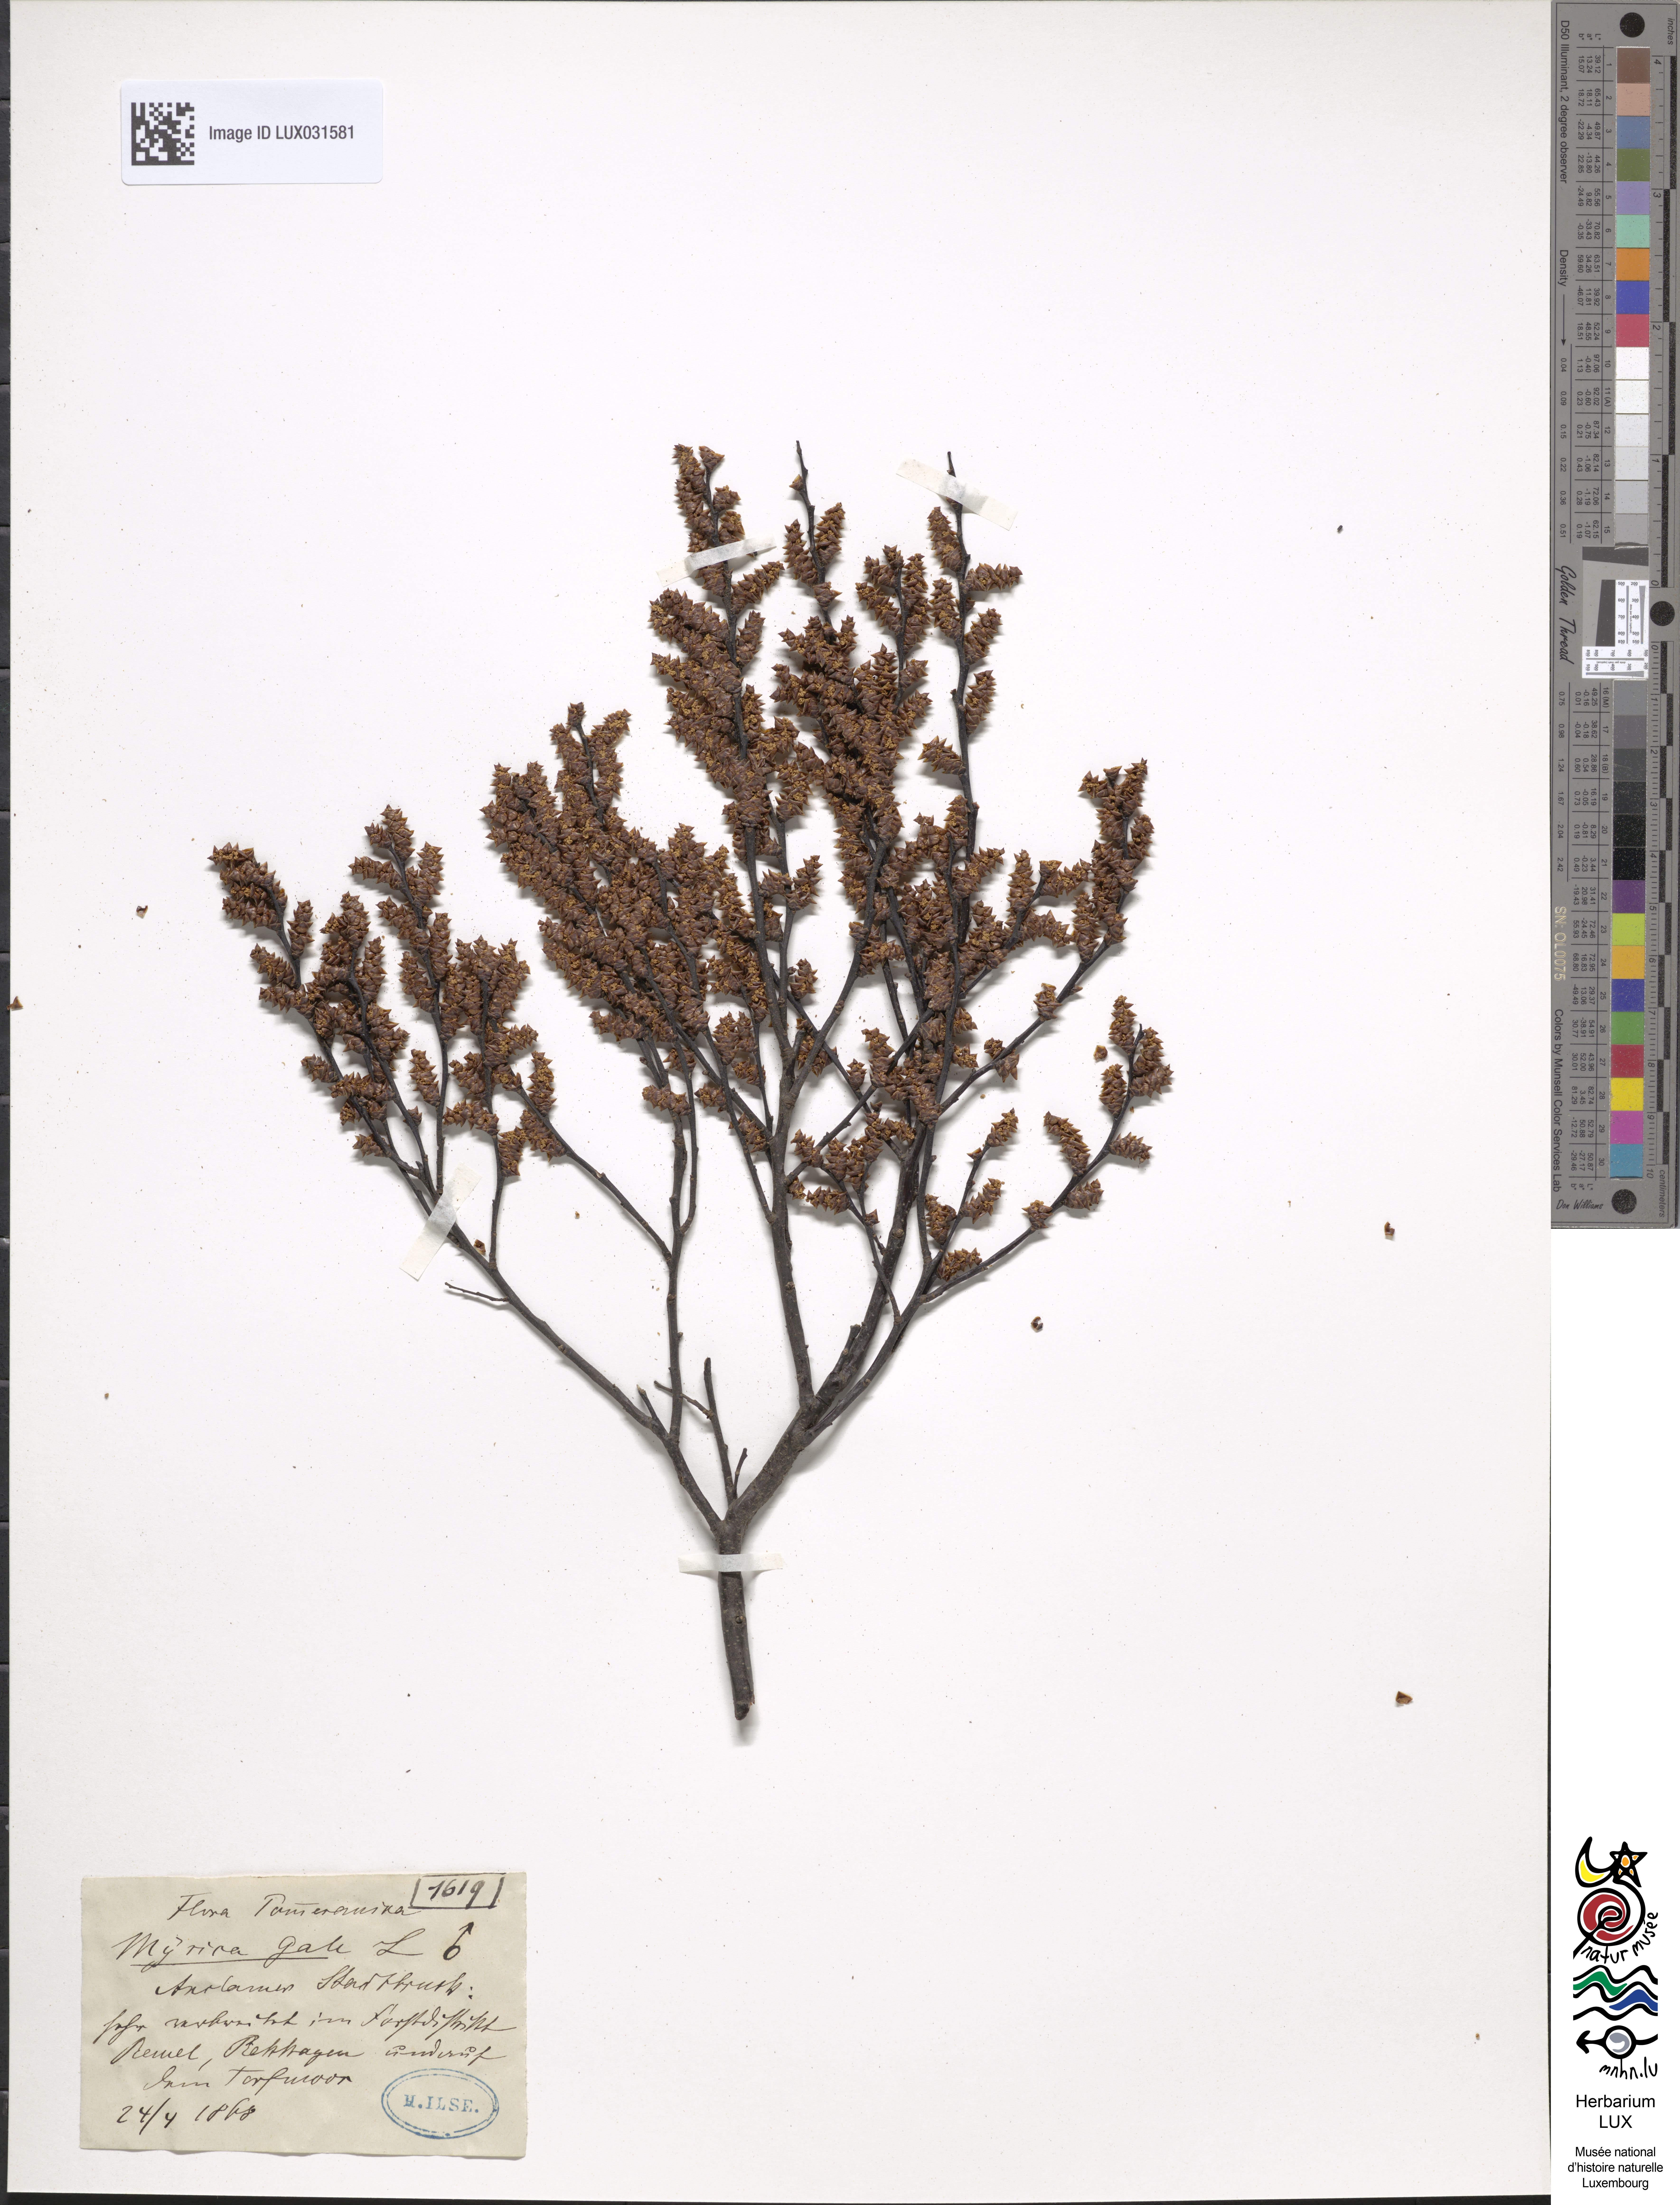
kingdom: Plantae
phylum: Tracheophyta
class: Magnoliopsida
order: Fagales
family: Myricaceae
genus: Myrica
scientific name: Myrica gale
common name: Sweet gale
